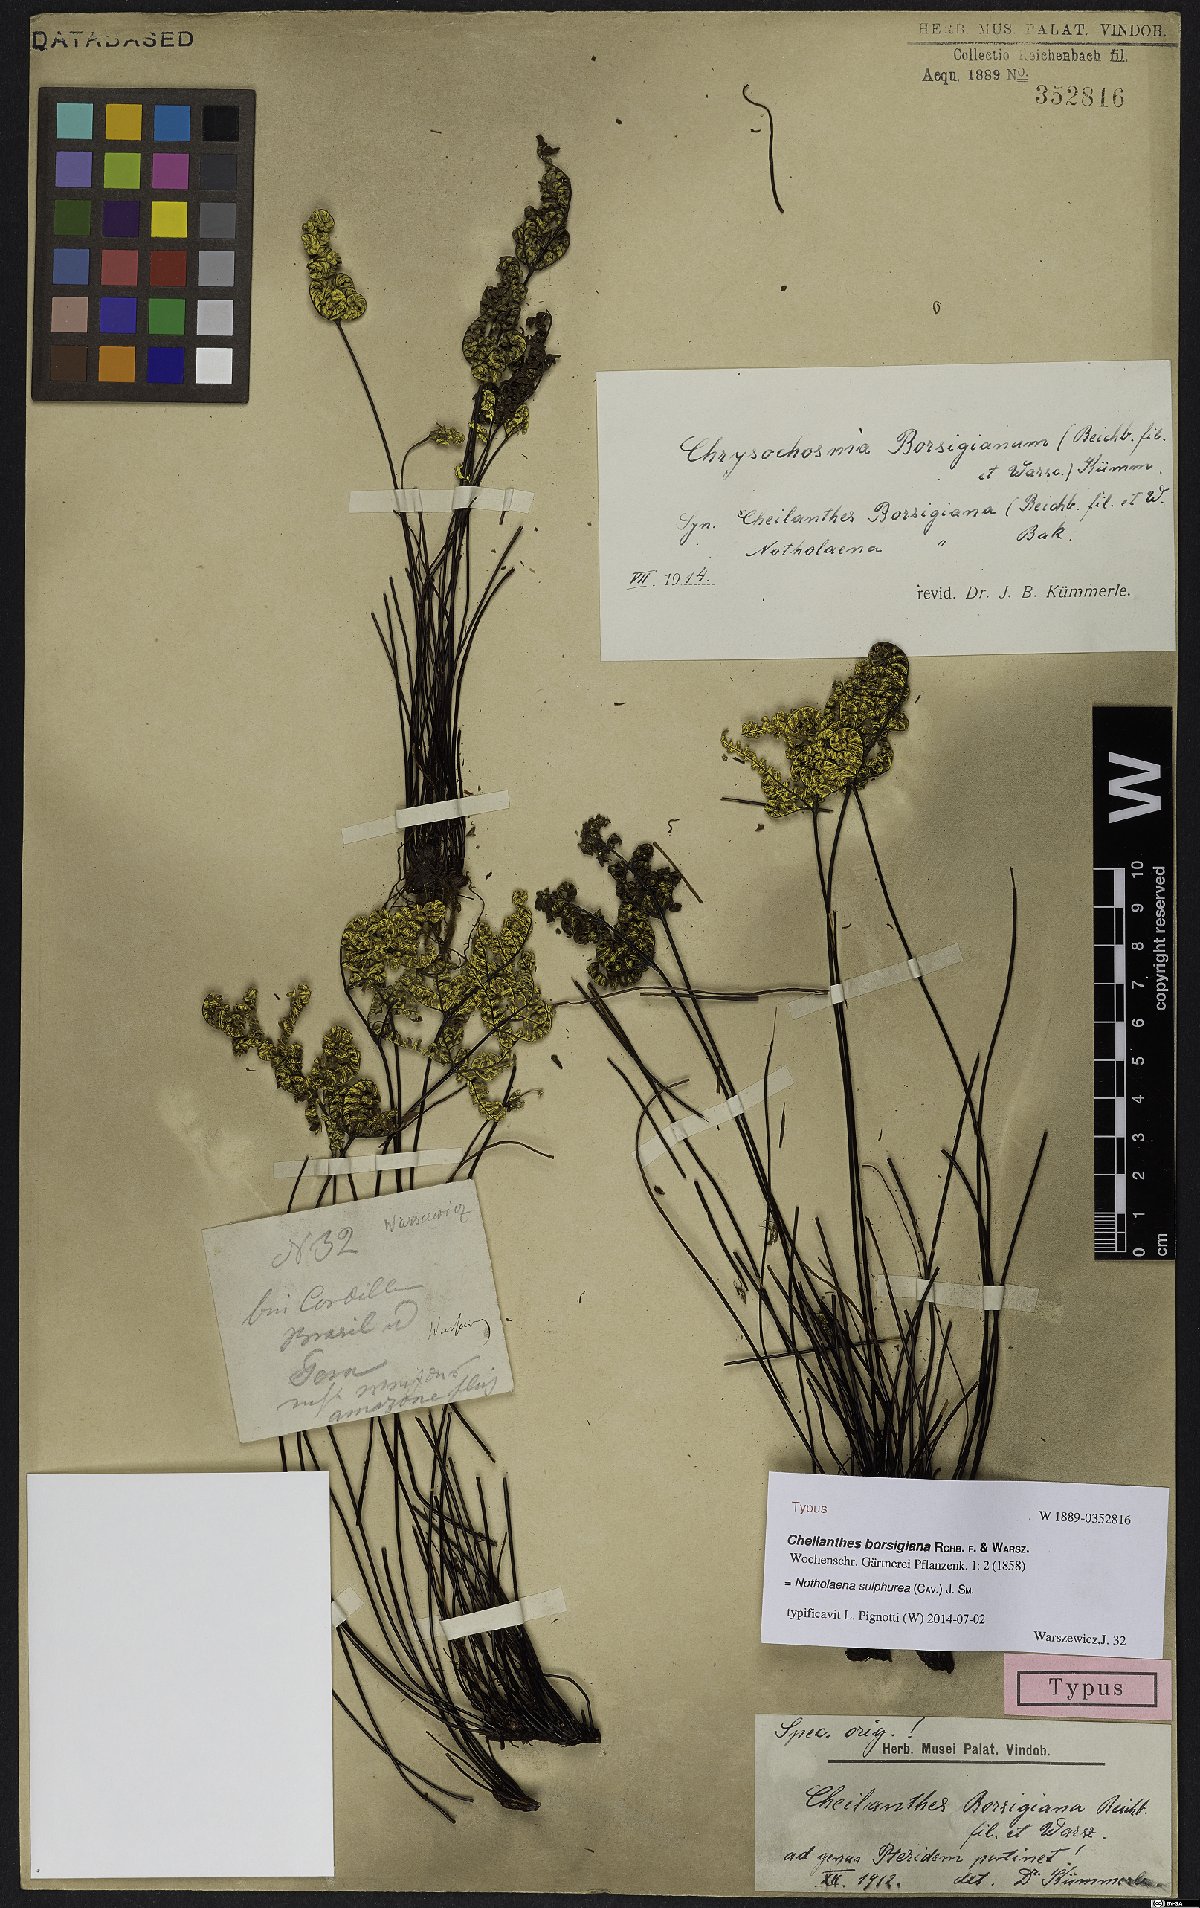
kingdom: Plantae
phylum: Tracheophyta
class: Polypodiopsida
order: Polypodiales
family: Pteridaceae
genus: Notholaena
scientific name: Notholaena sulphurea
